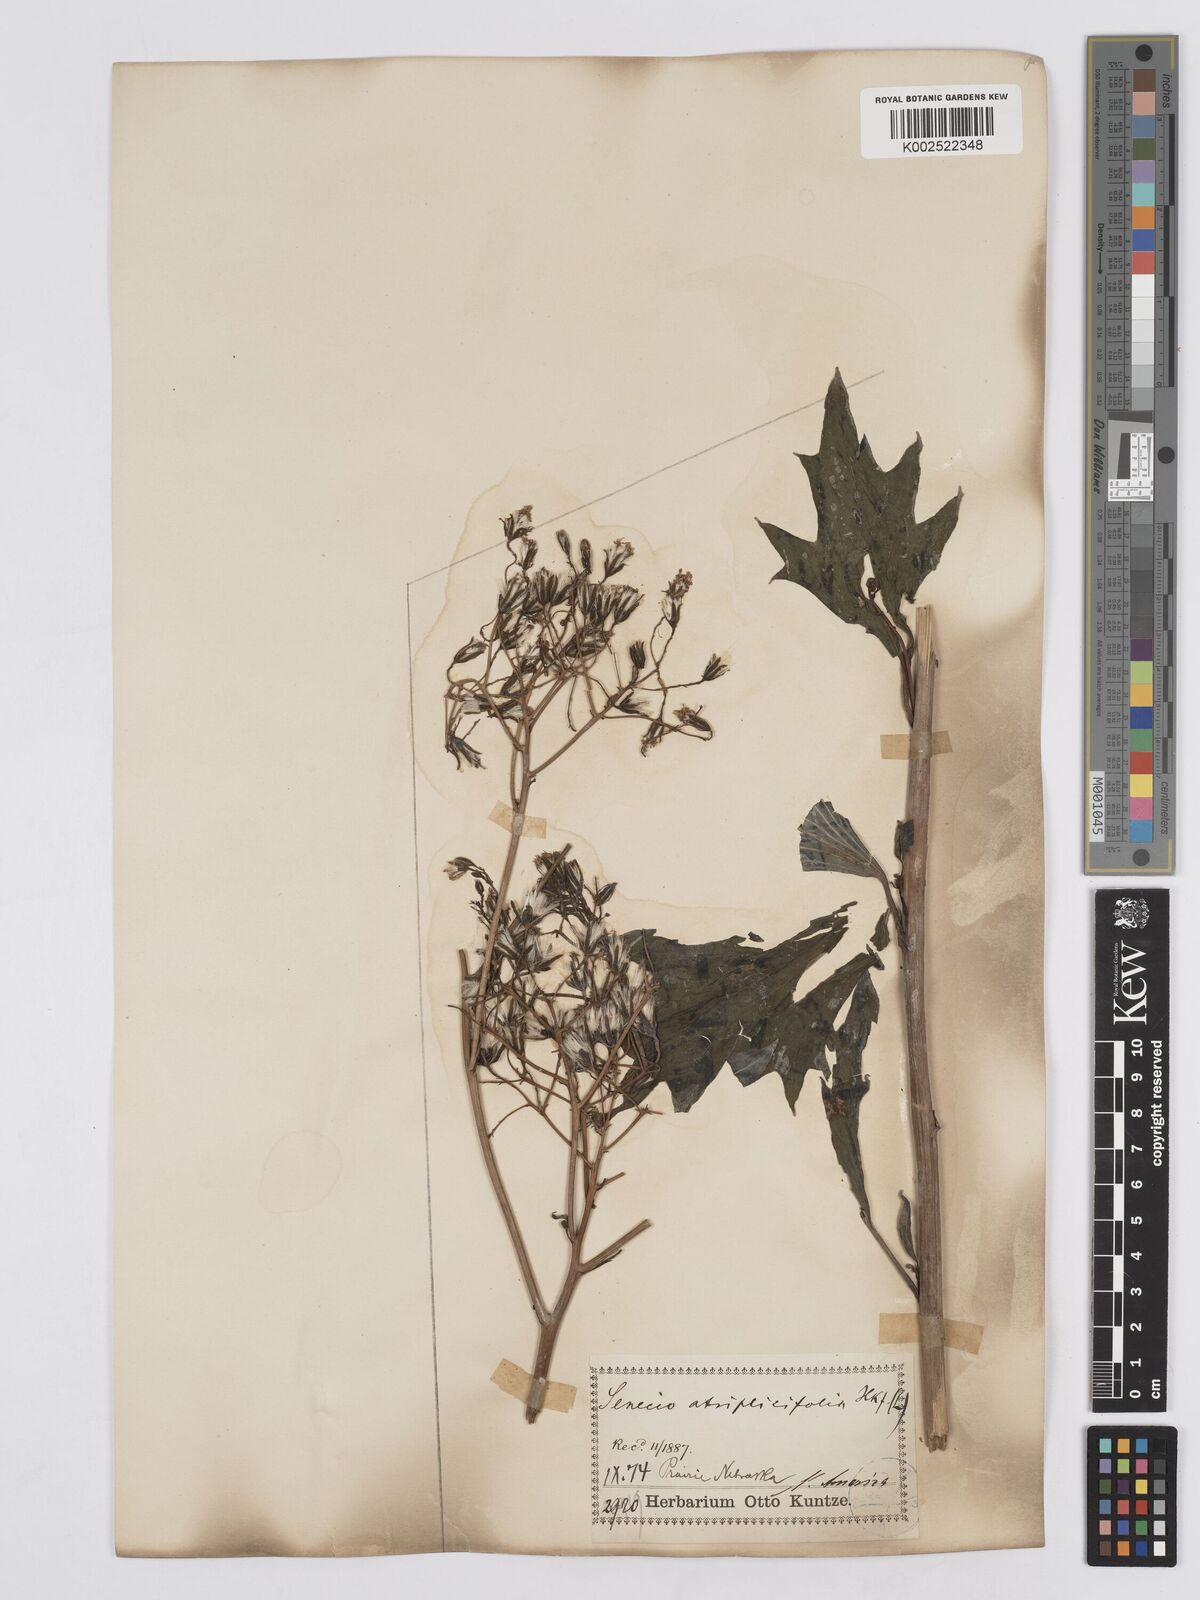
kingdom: Plantae
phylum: Tracheophyta
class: Magnoliopsida
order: Asterales
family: Asteraceae
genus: Arnoglossum
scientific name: Arnoglossum atriplicifolium
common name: Pale indian-plantain
